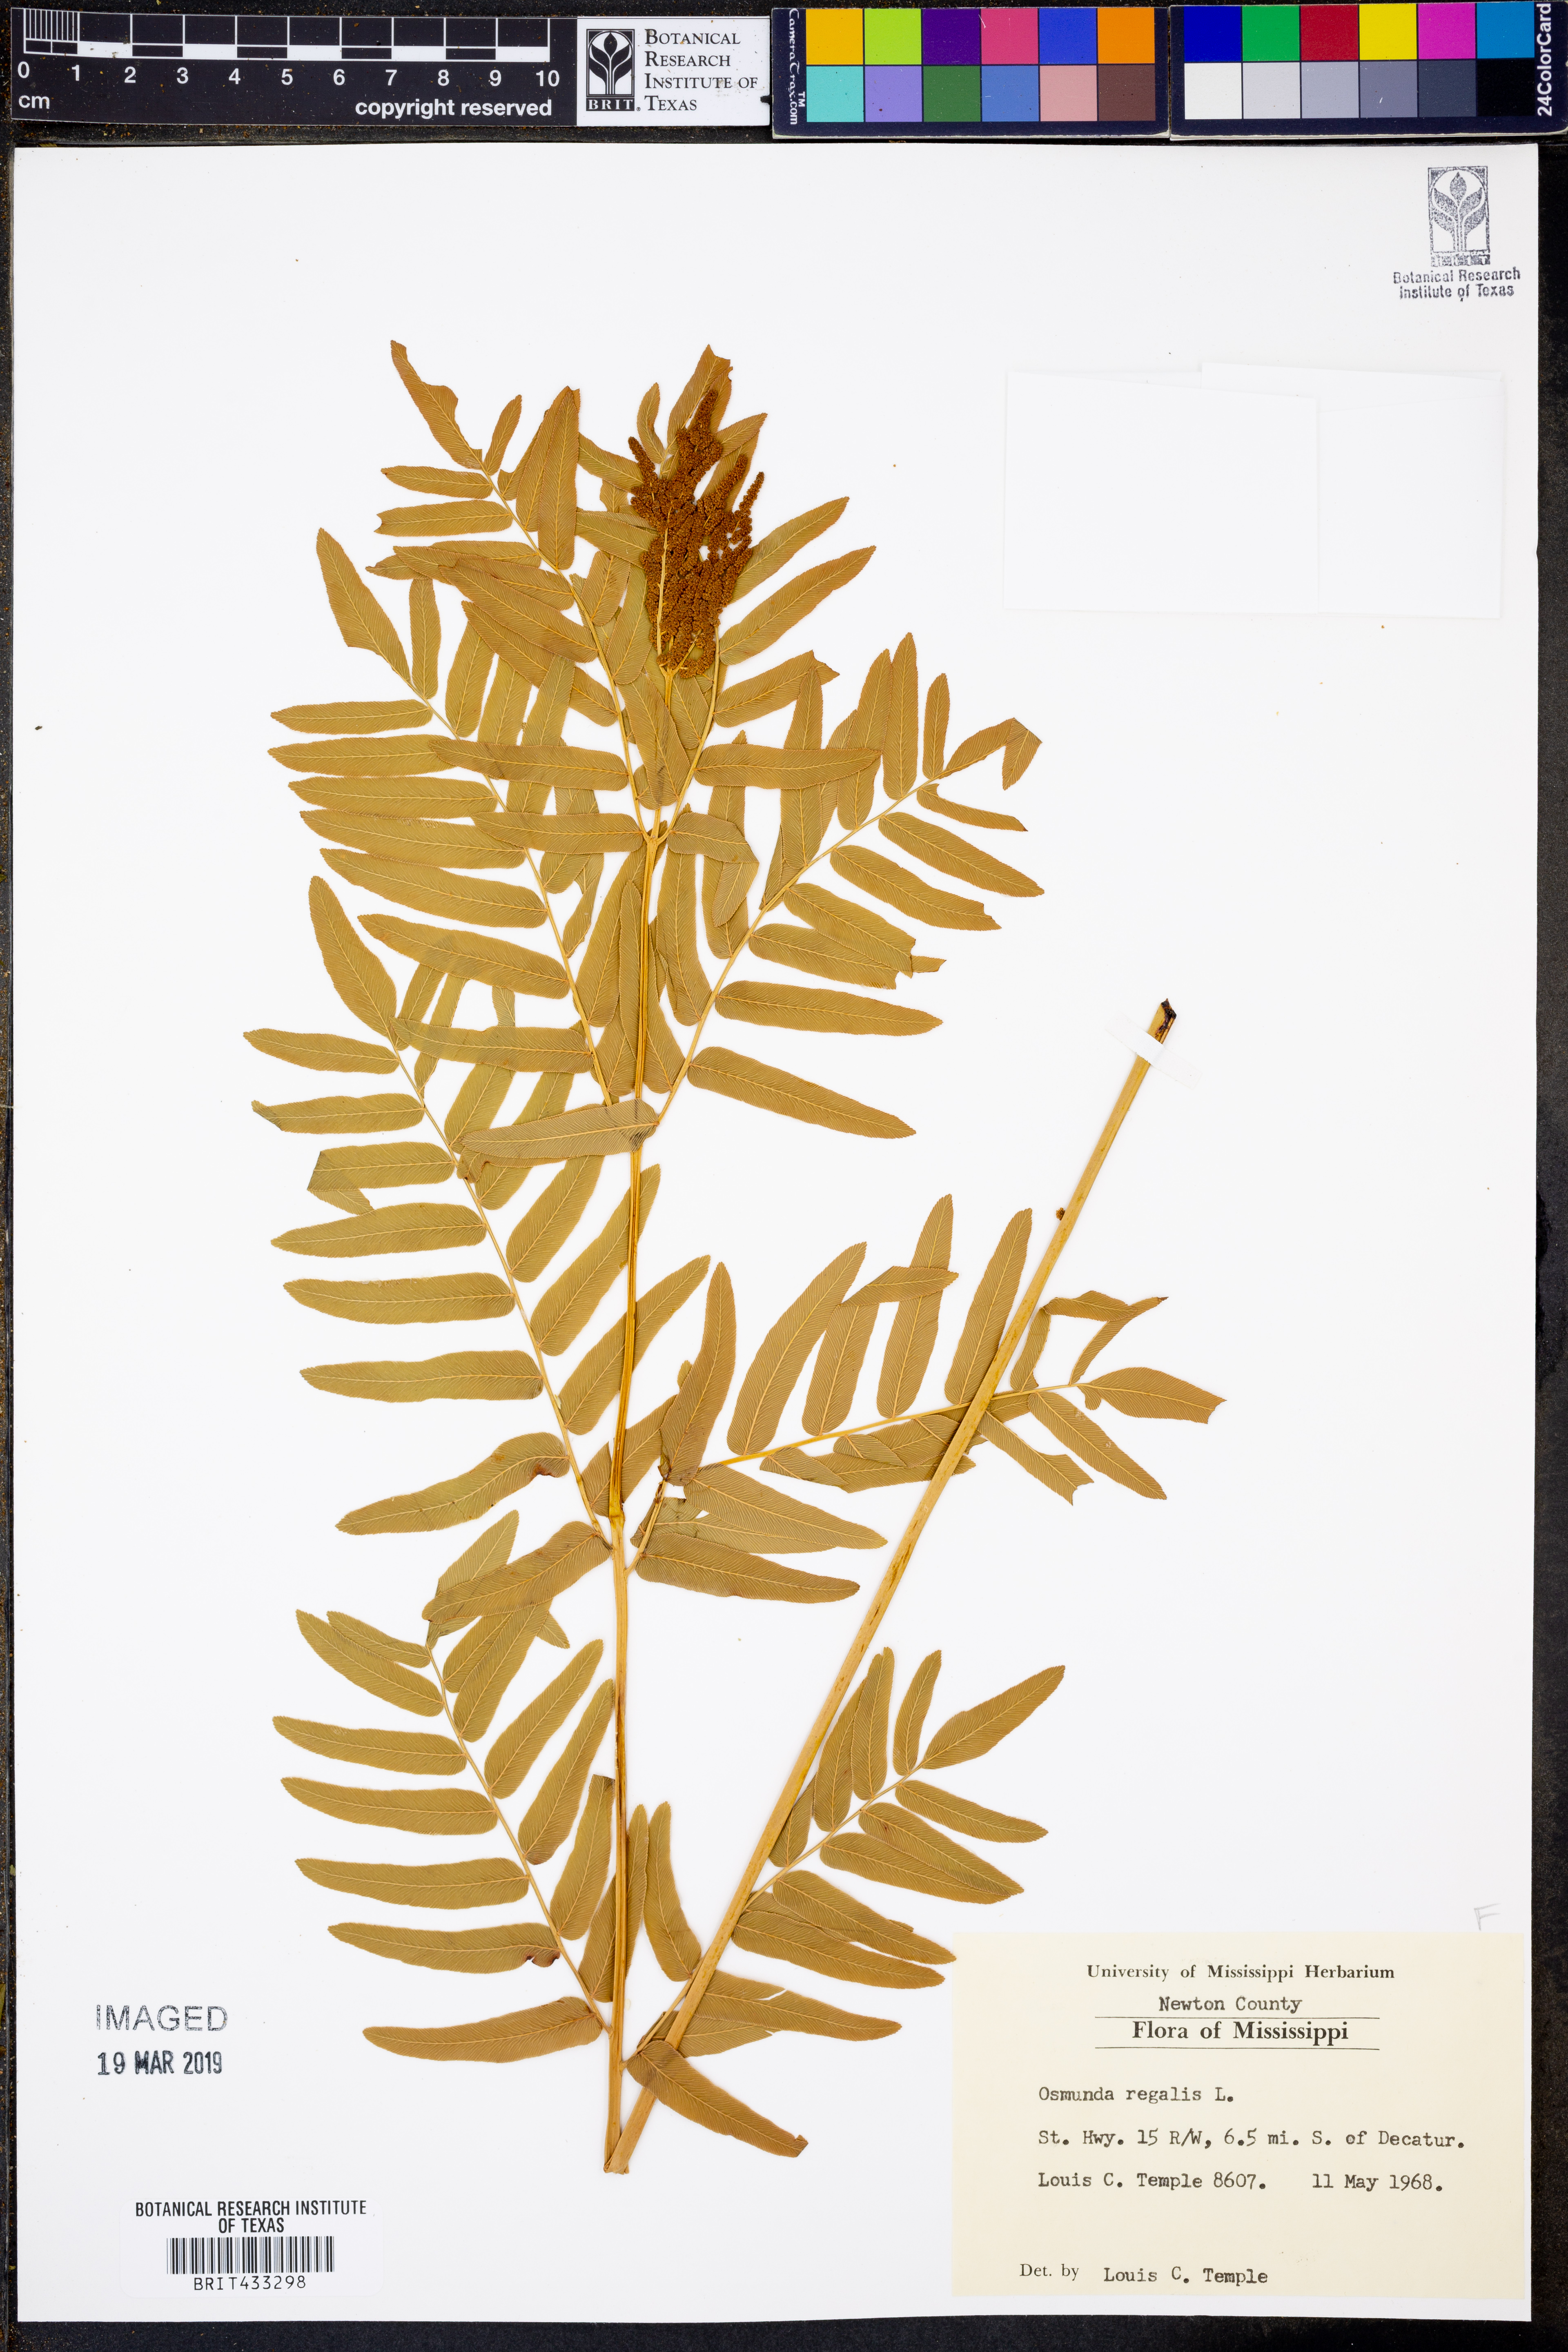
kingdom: Plantae
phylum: Tracheophyta
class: Polypodiopsida
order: Osmundales
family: Osmundaceae
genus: Osmunda
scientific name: Osmunda regalis
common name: Royal fern
